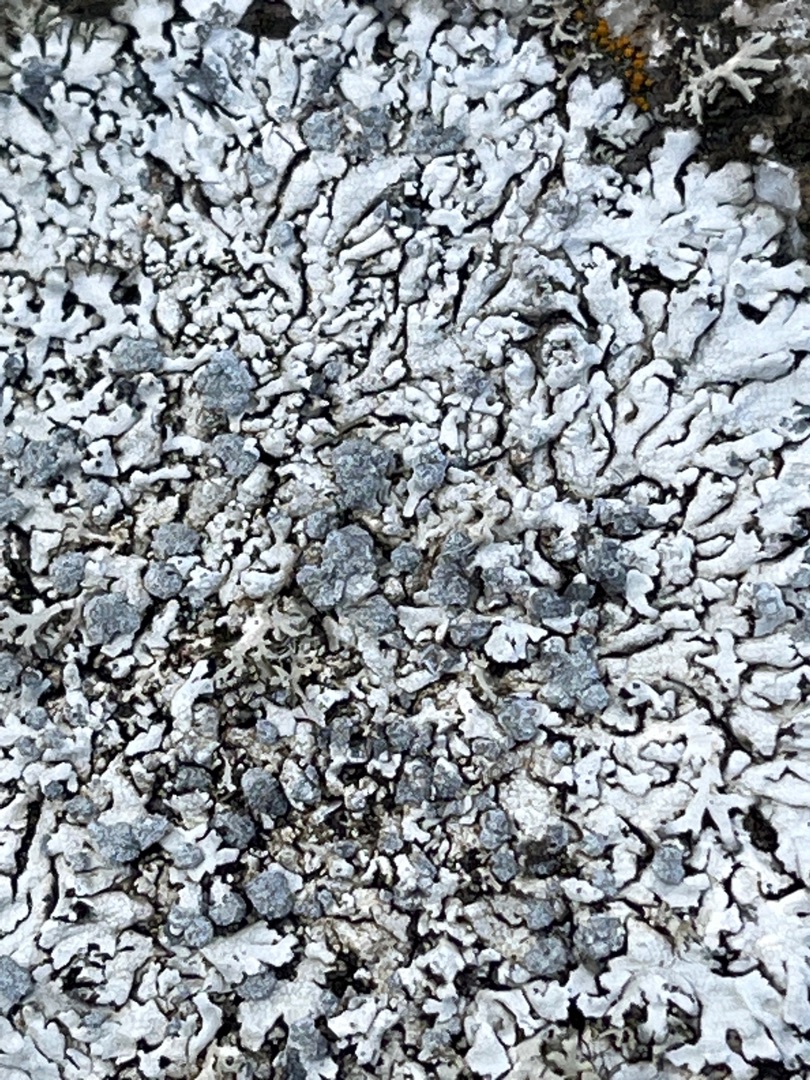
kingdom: Fungi
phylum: Ascomycota
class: Lecanoromycetes
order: Caliciales
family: Physciaceae
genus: Physcia
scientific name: Physcia caesia
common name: Blågrå rosetlav
